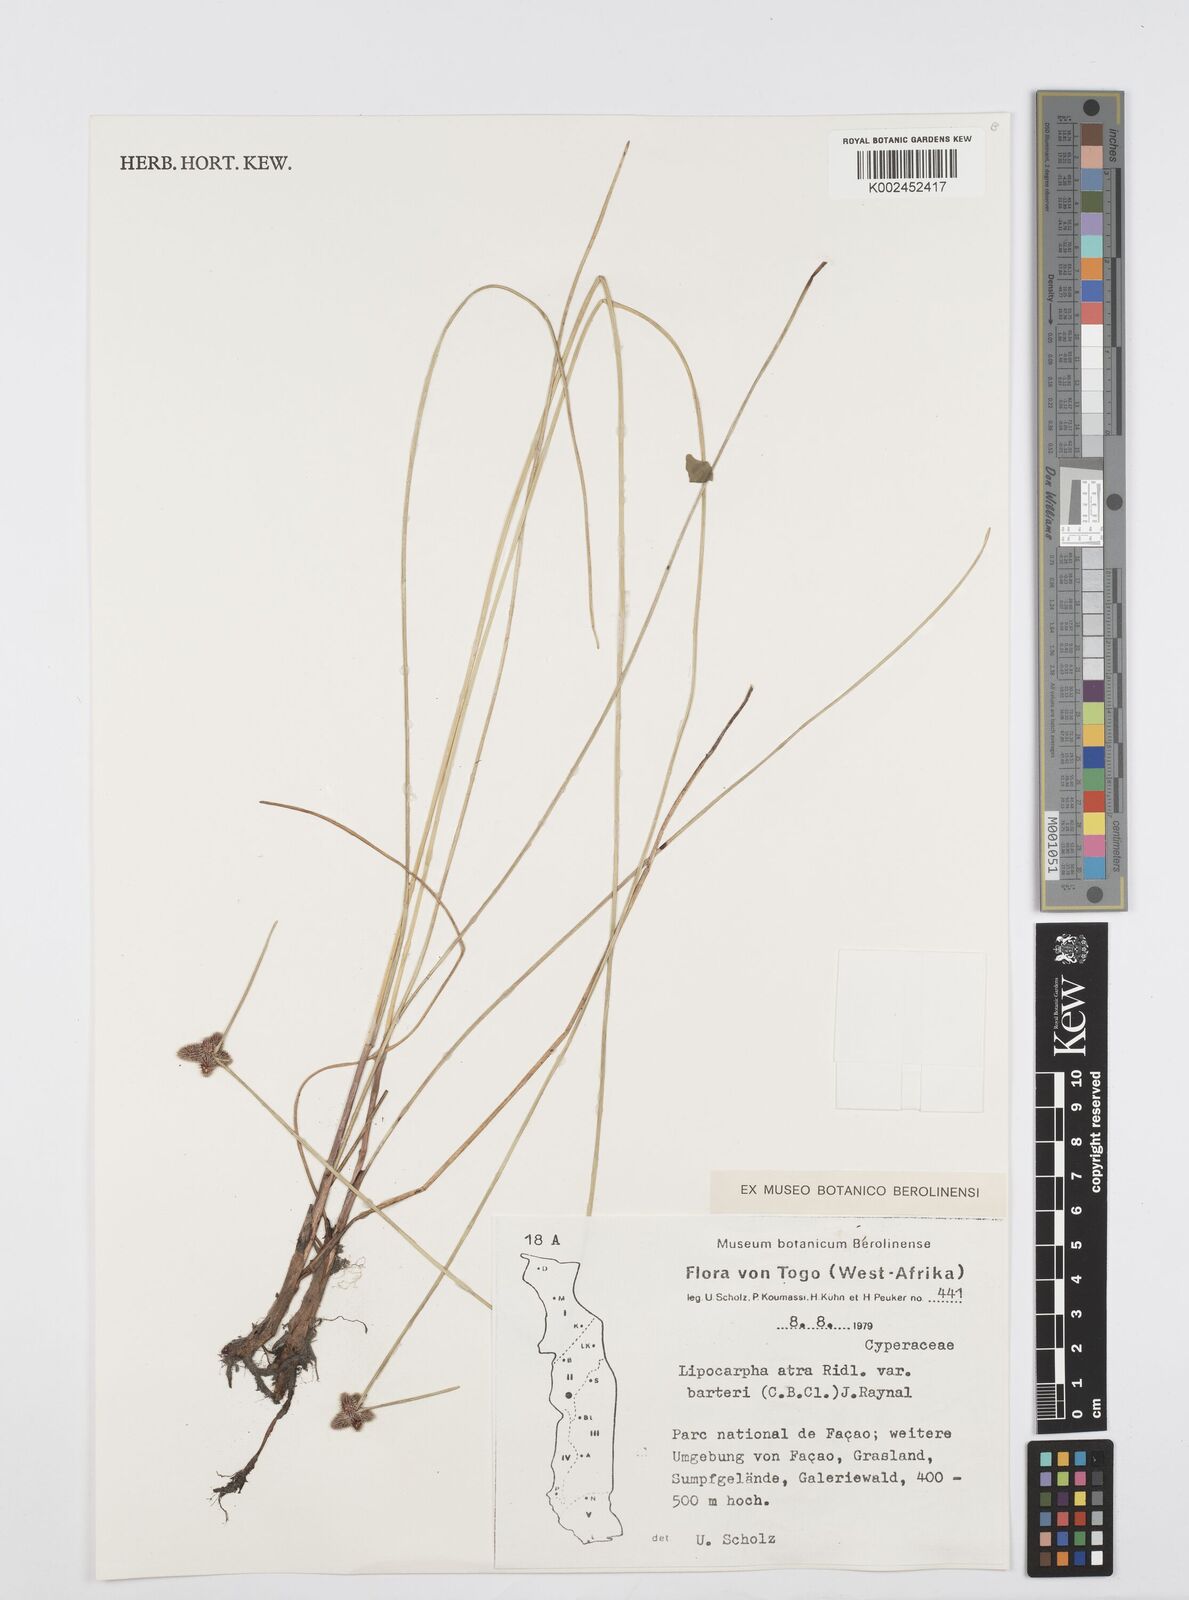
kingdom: Plantae
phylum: Tracheophyta
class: Liliopsida
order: Poales
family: Cyperaceae
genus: Cyperus
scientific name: Cyperus pustulatus
